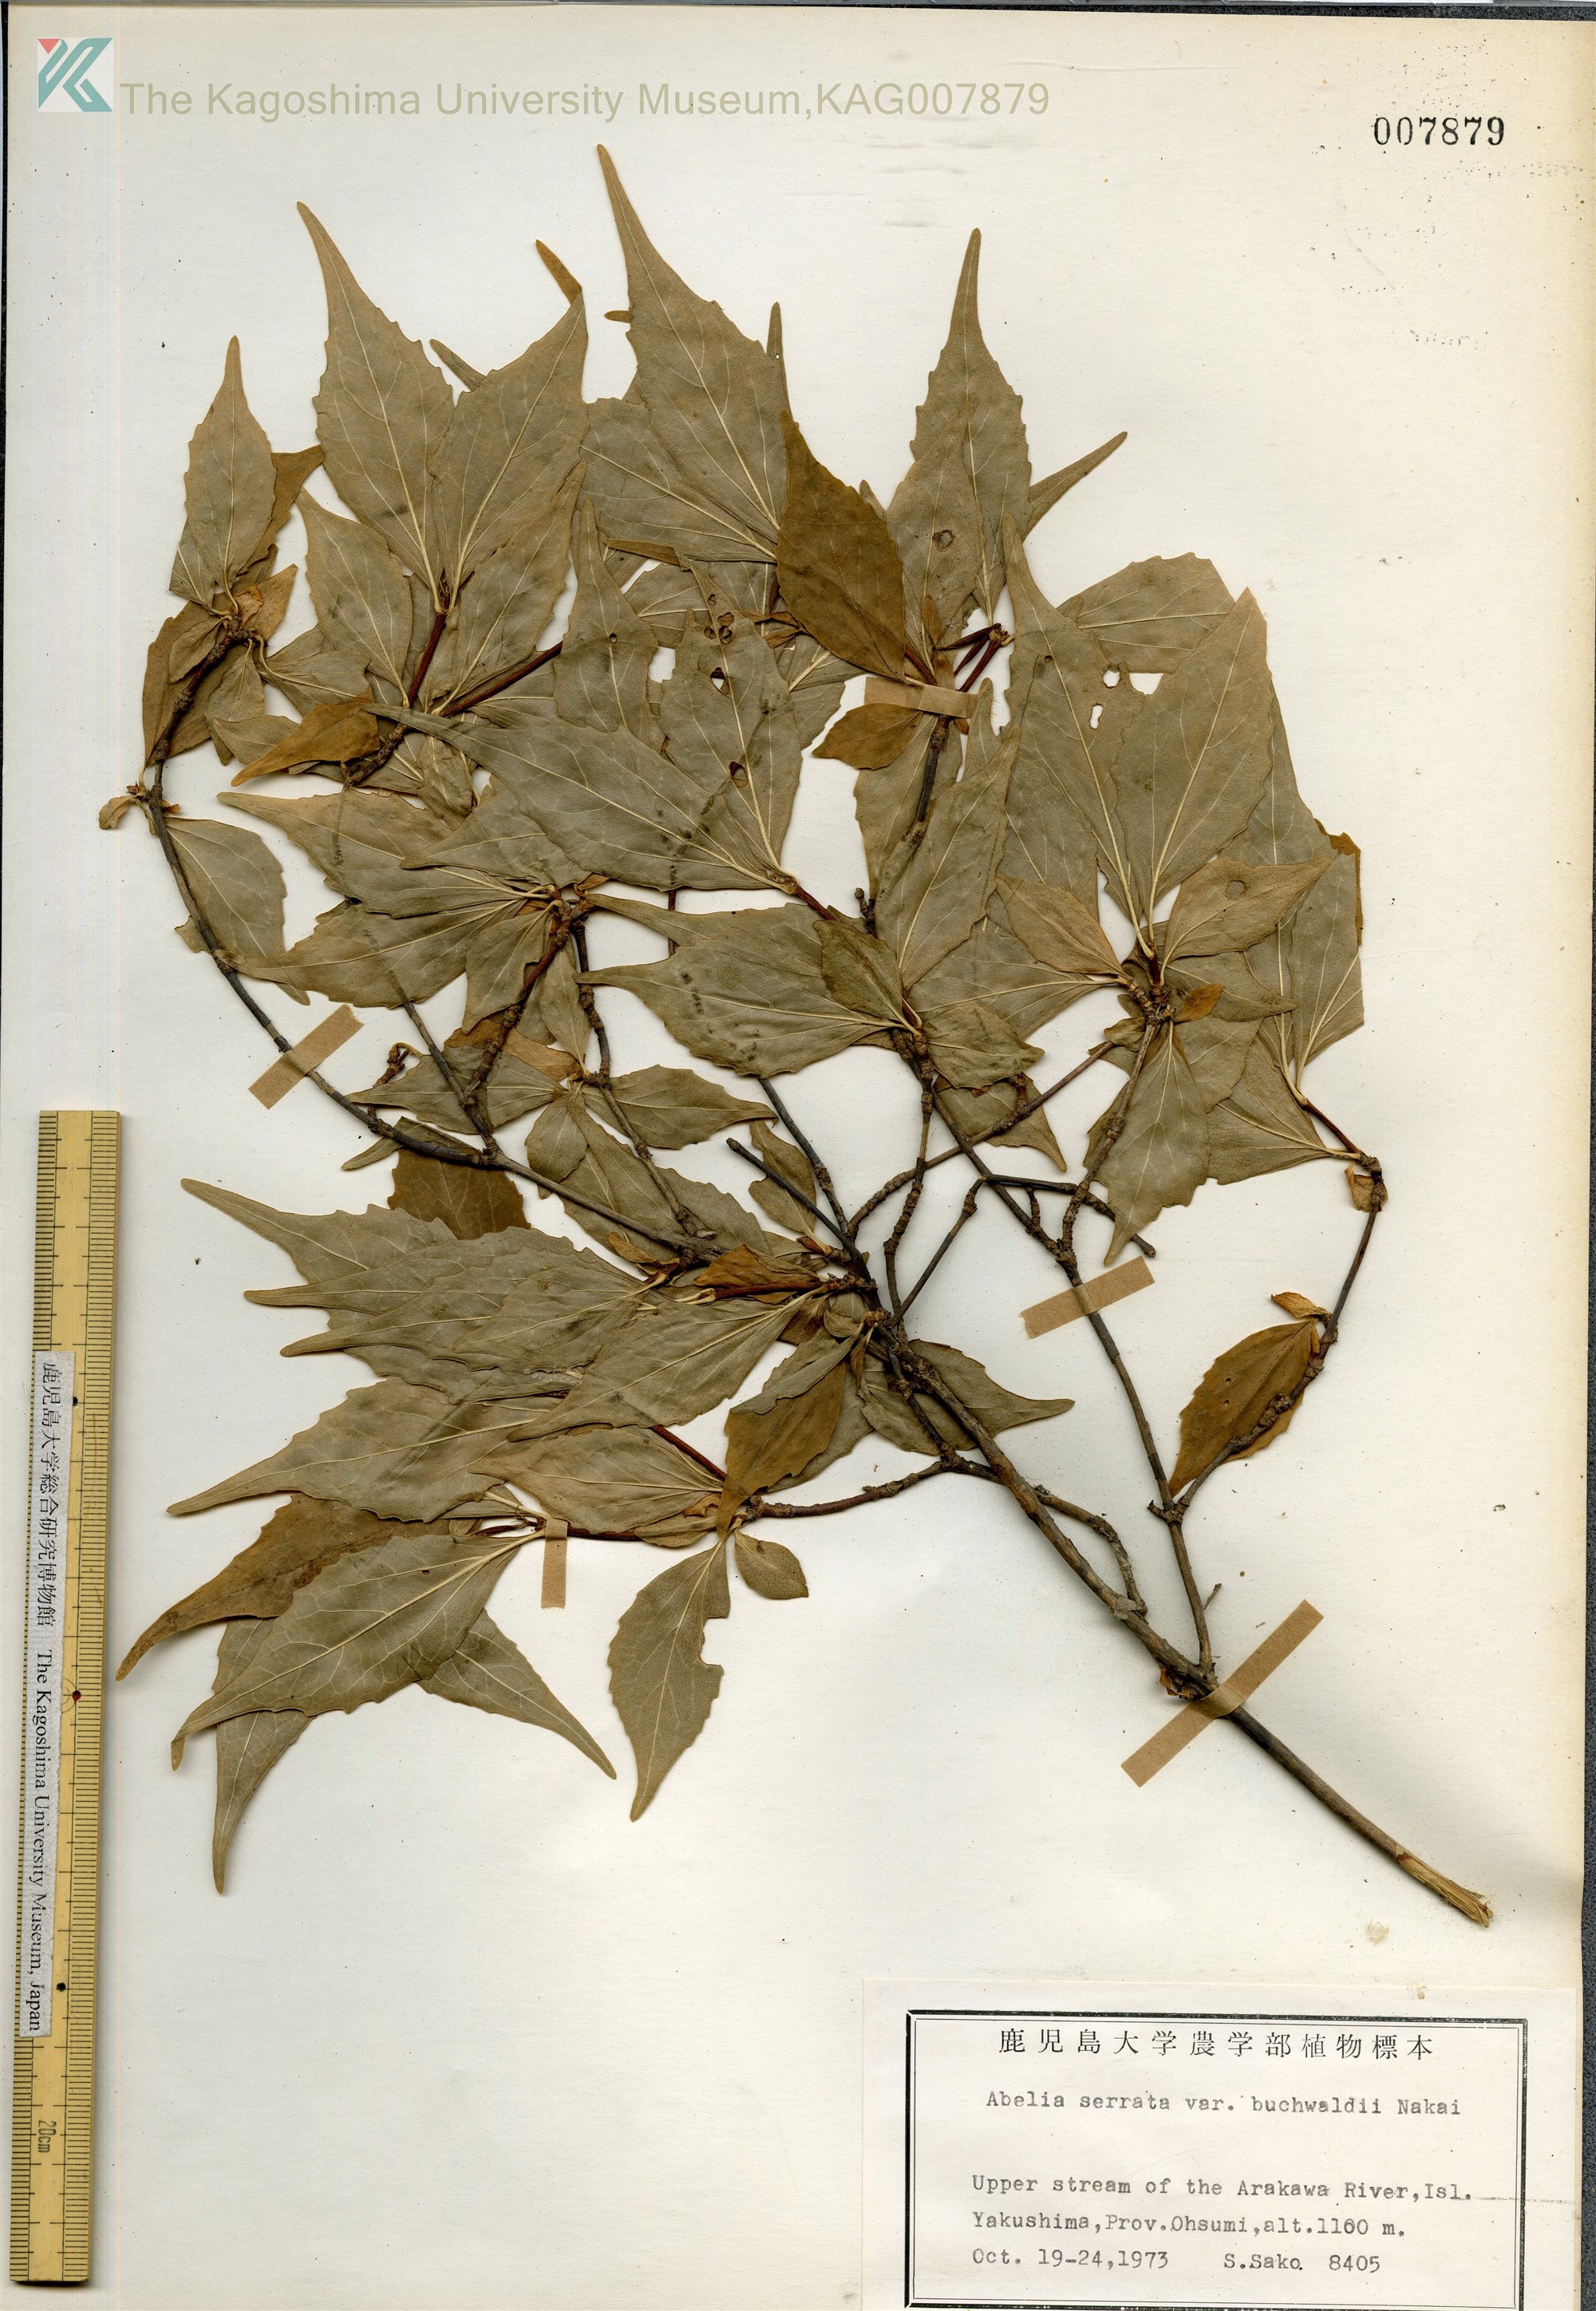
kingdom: Plantae
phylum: Tracheophyta
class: Magnoliopsida
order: Dipsacales
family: Caprifoliaceae
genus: Diabelia
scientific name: Diabelia serrata
